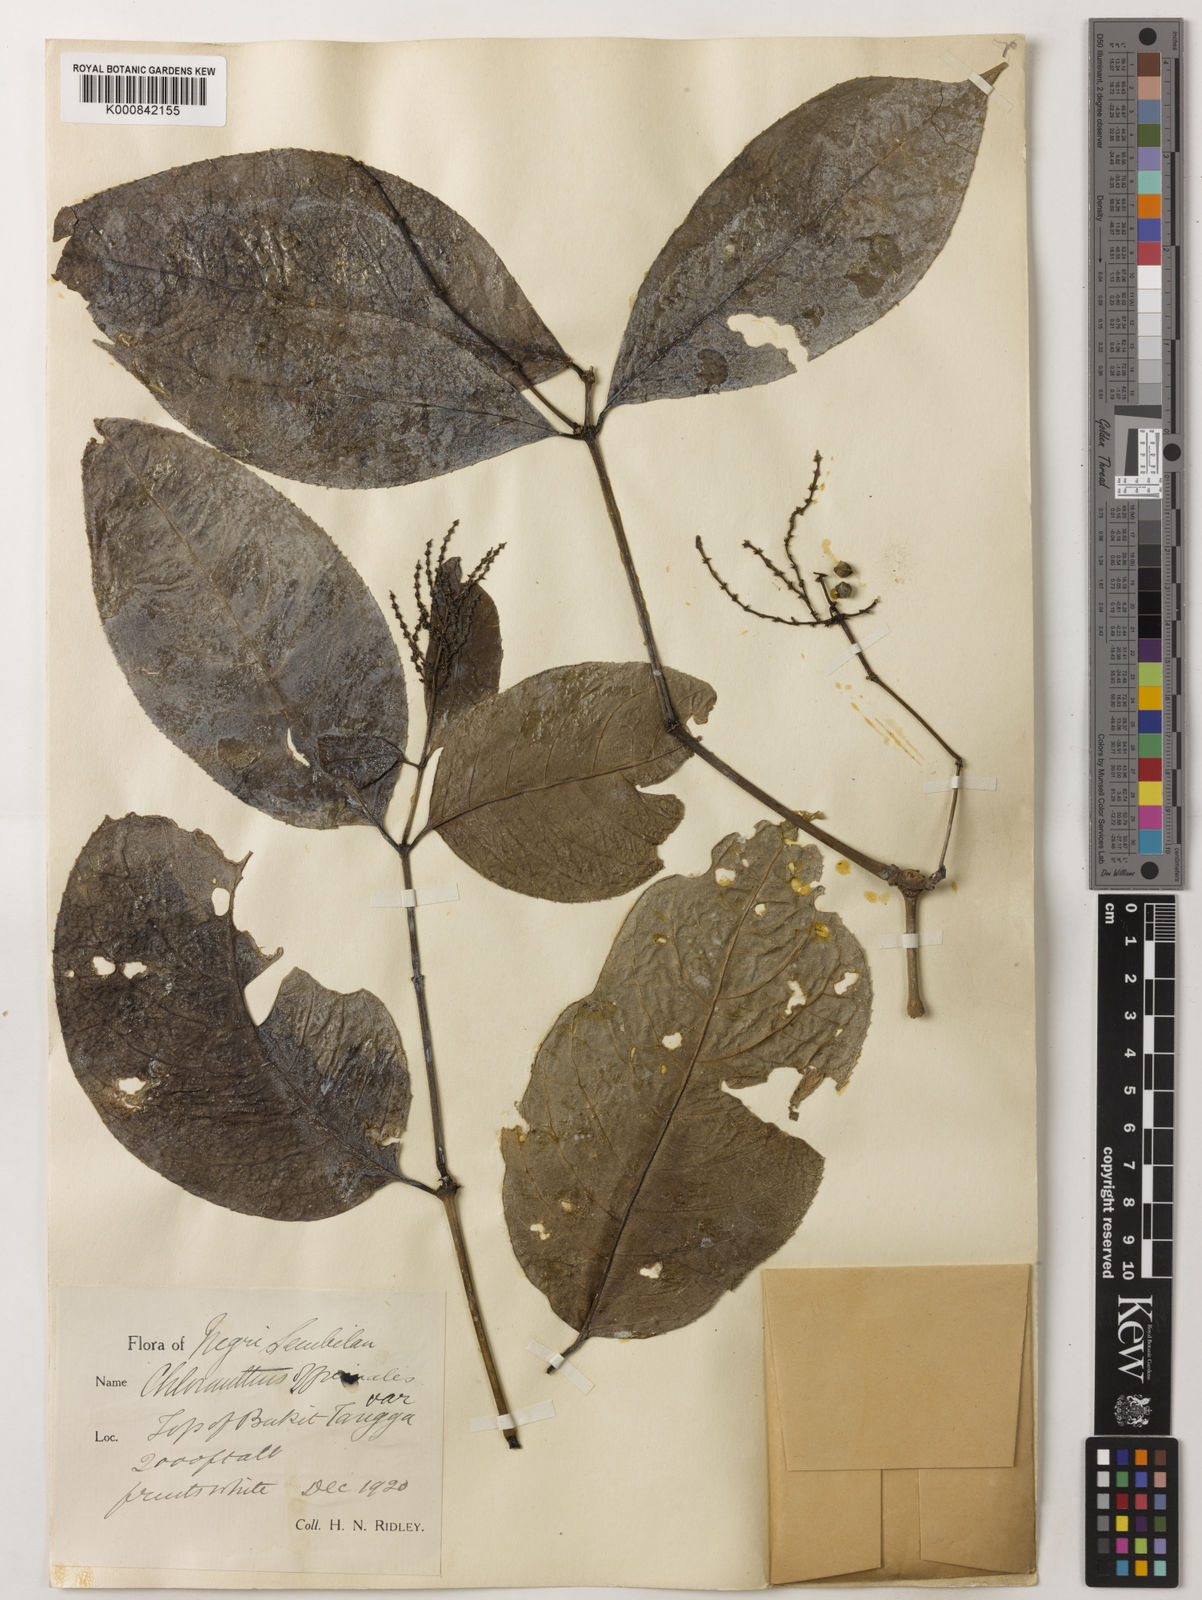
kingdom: Plantae
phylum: Tracheophyta
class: Magnoliopsida
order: Chloranthales
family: Chloranthaceae
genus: Chloranthus
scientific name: Chloranthus
